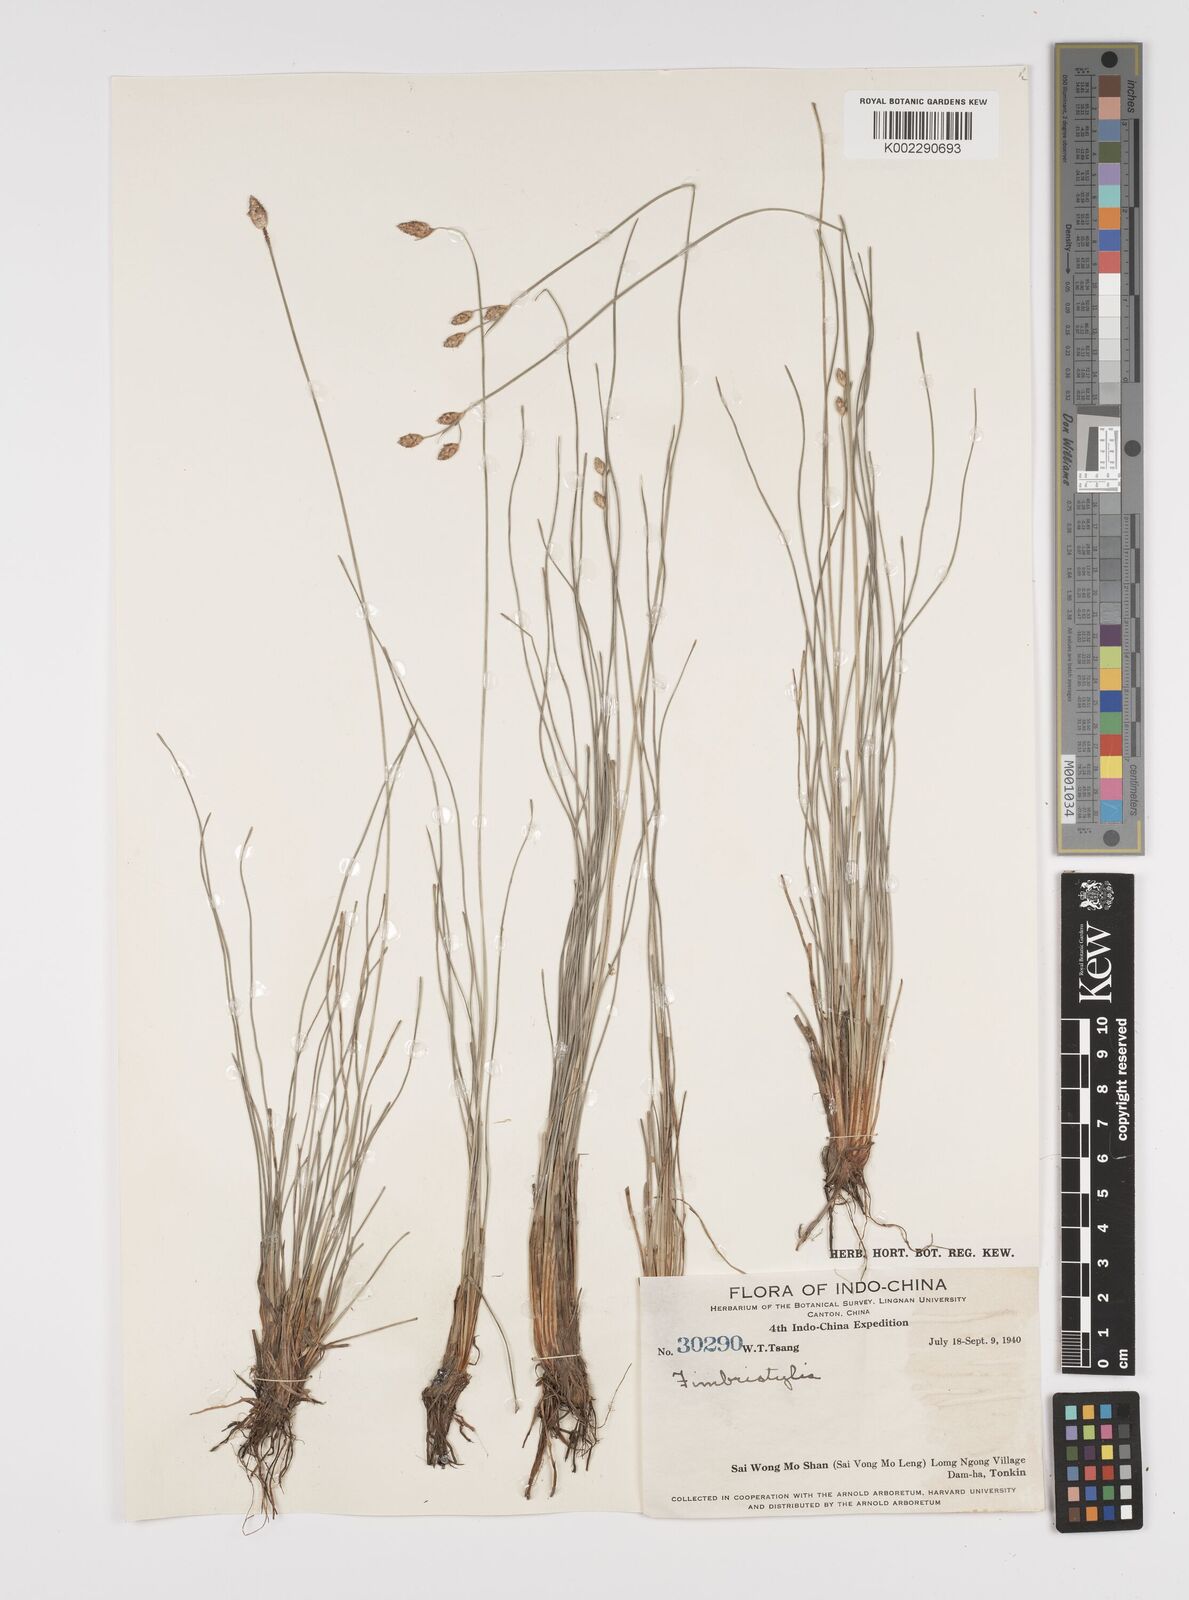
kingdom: Plantae
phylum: Tracheophyta
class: Liliopsida
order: Poales
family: Cyperaceae
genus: Fimbristylis
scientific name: Fimbristylis
